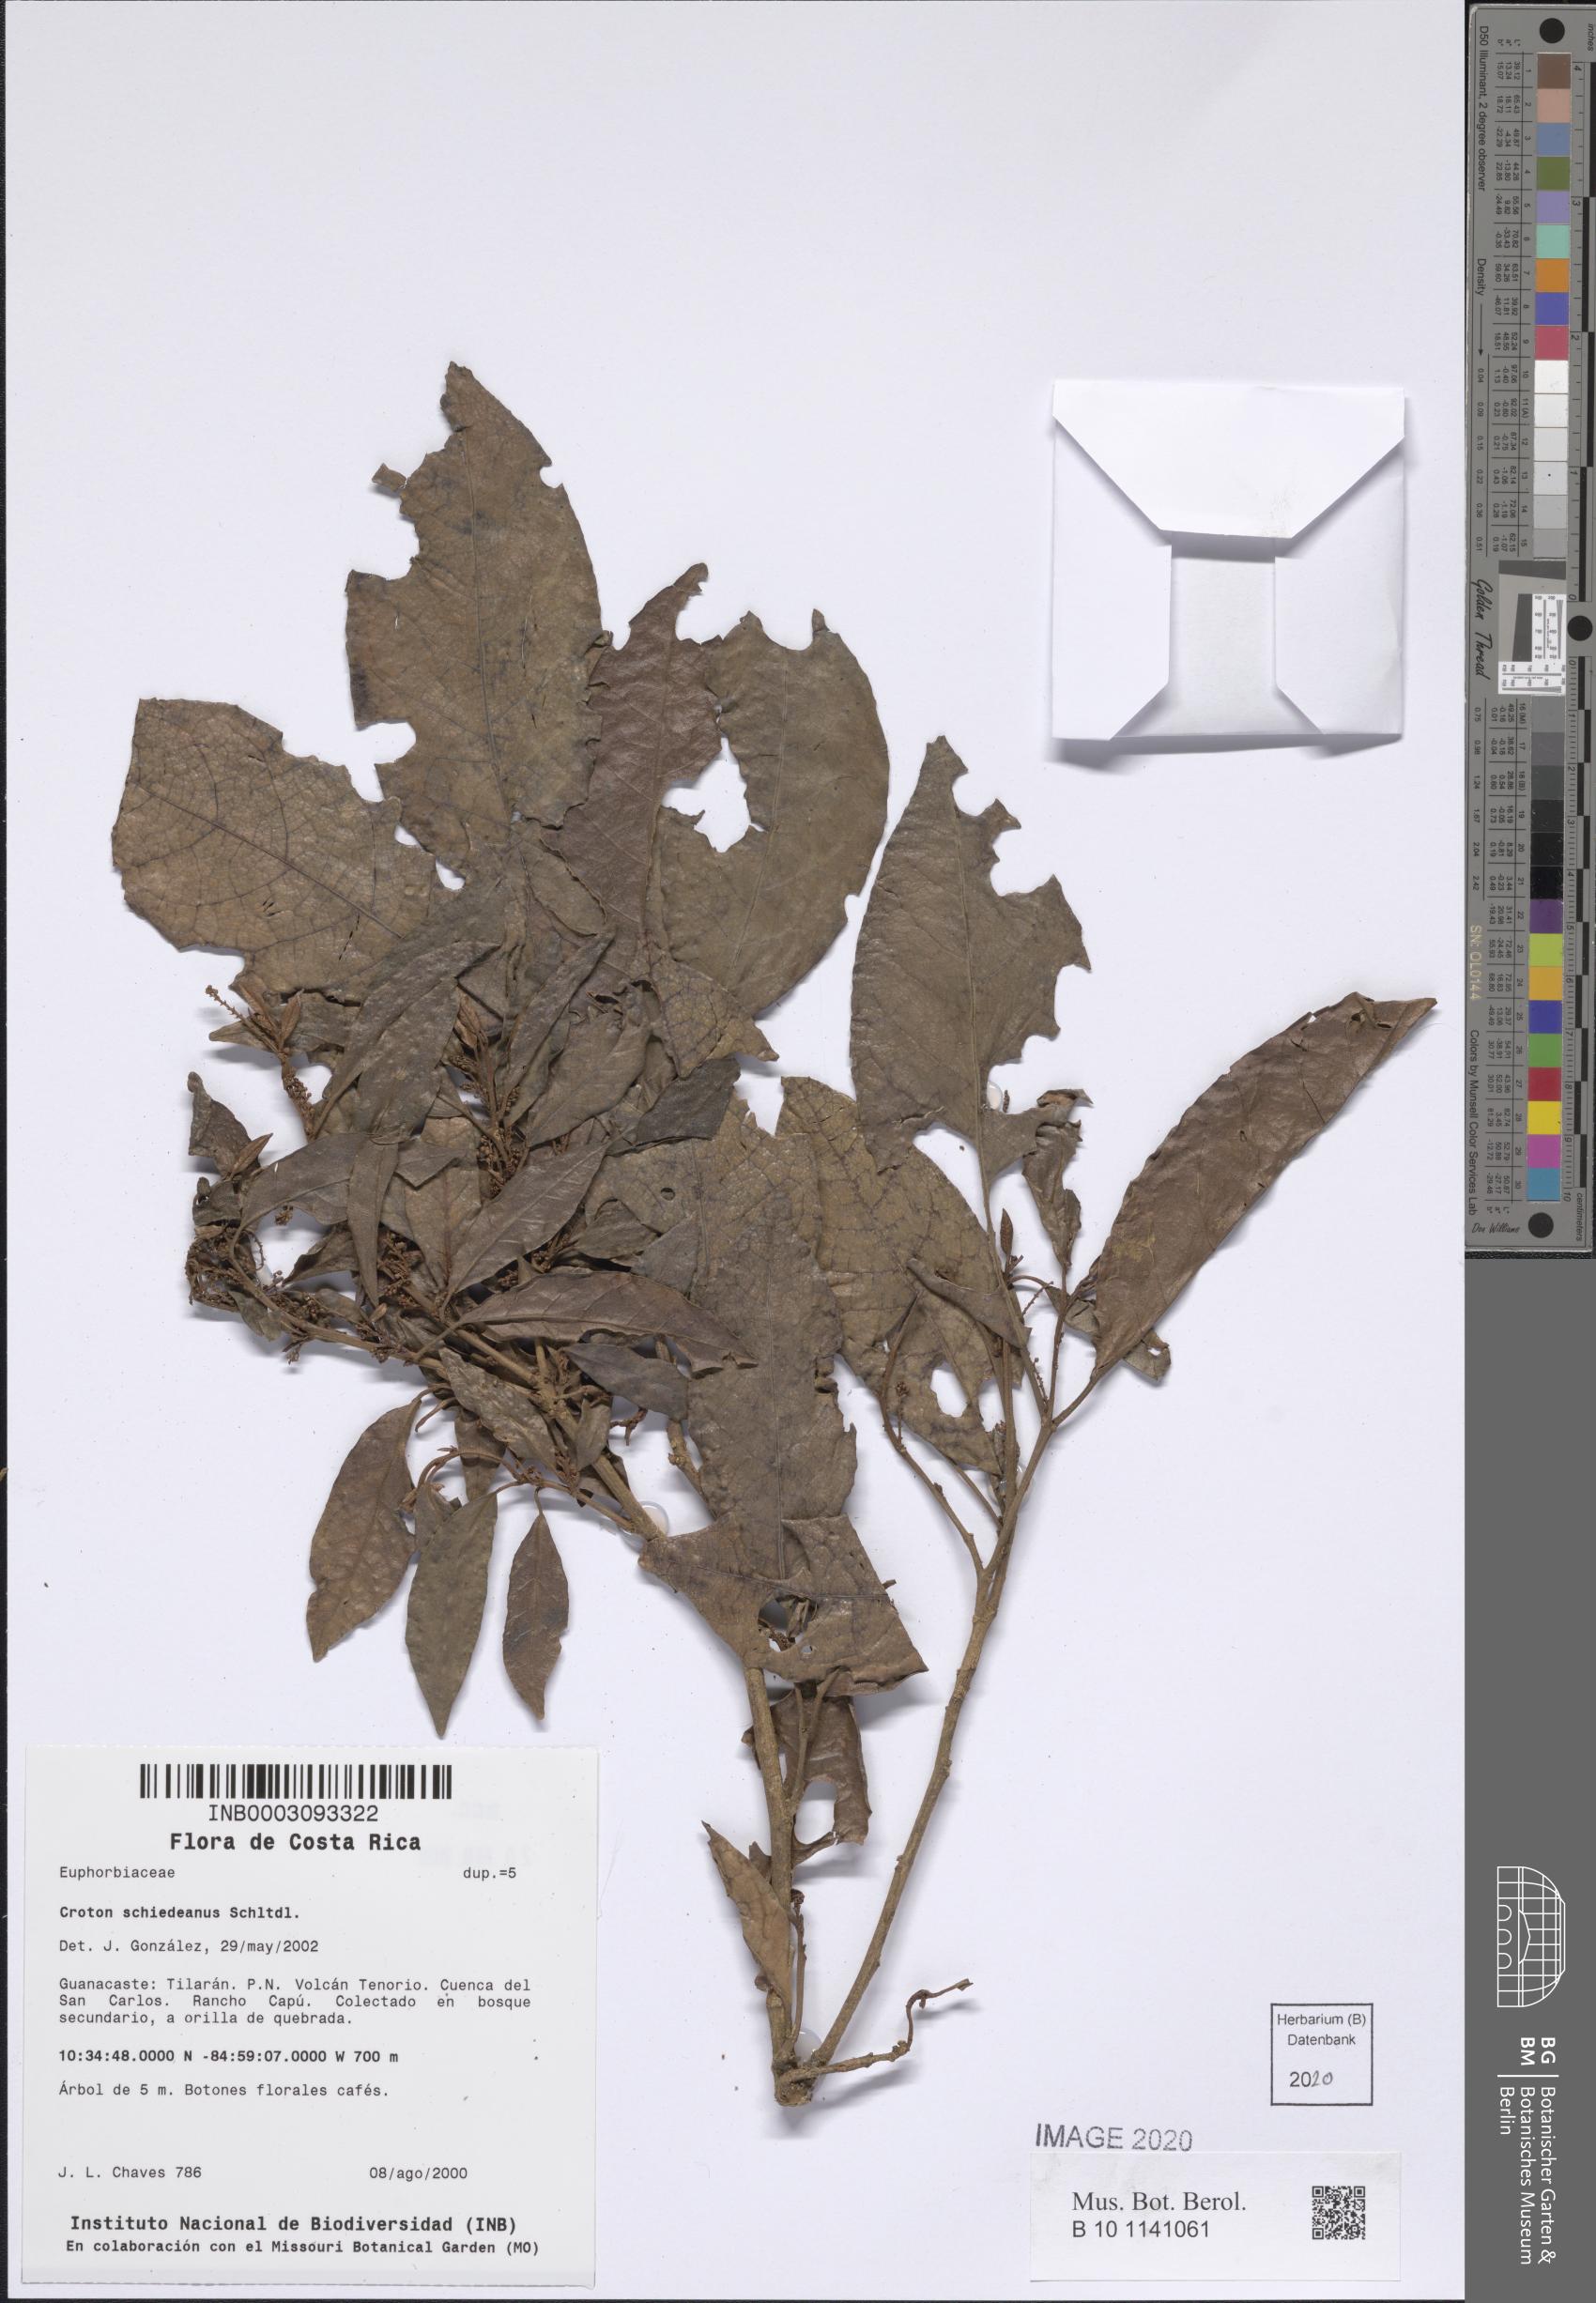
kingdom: Plantae
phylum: Tracheophyta
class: Magnoliopsida
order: Malpighiales
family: Euphorbiaceae
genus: Croton
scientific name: Croton schiedeanus
